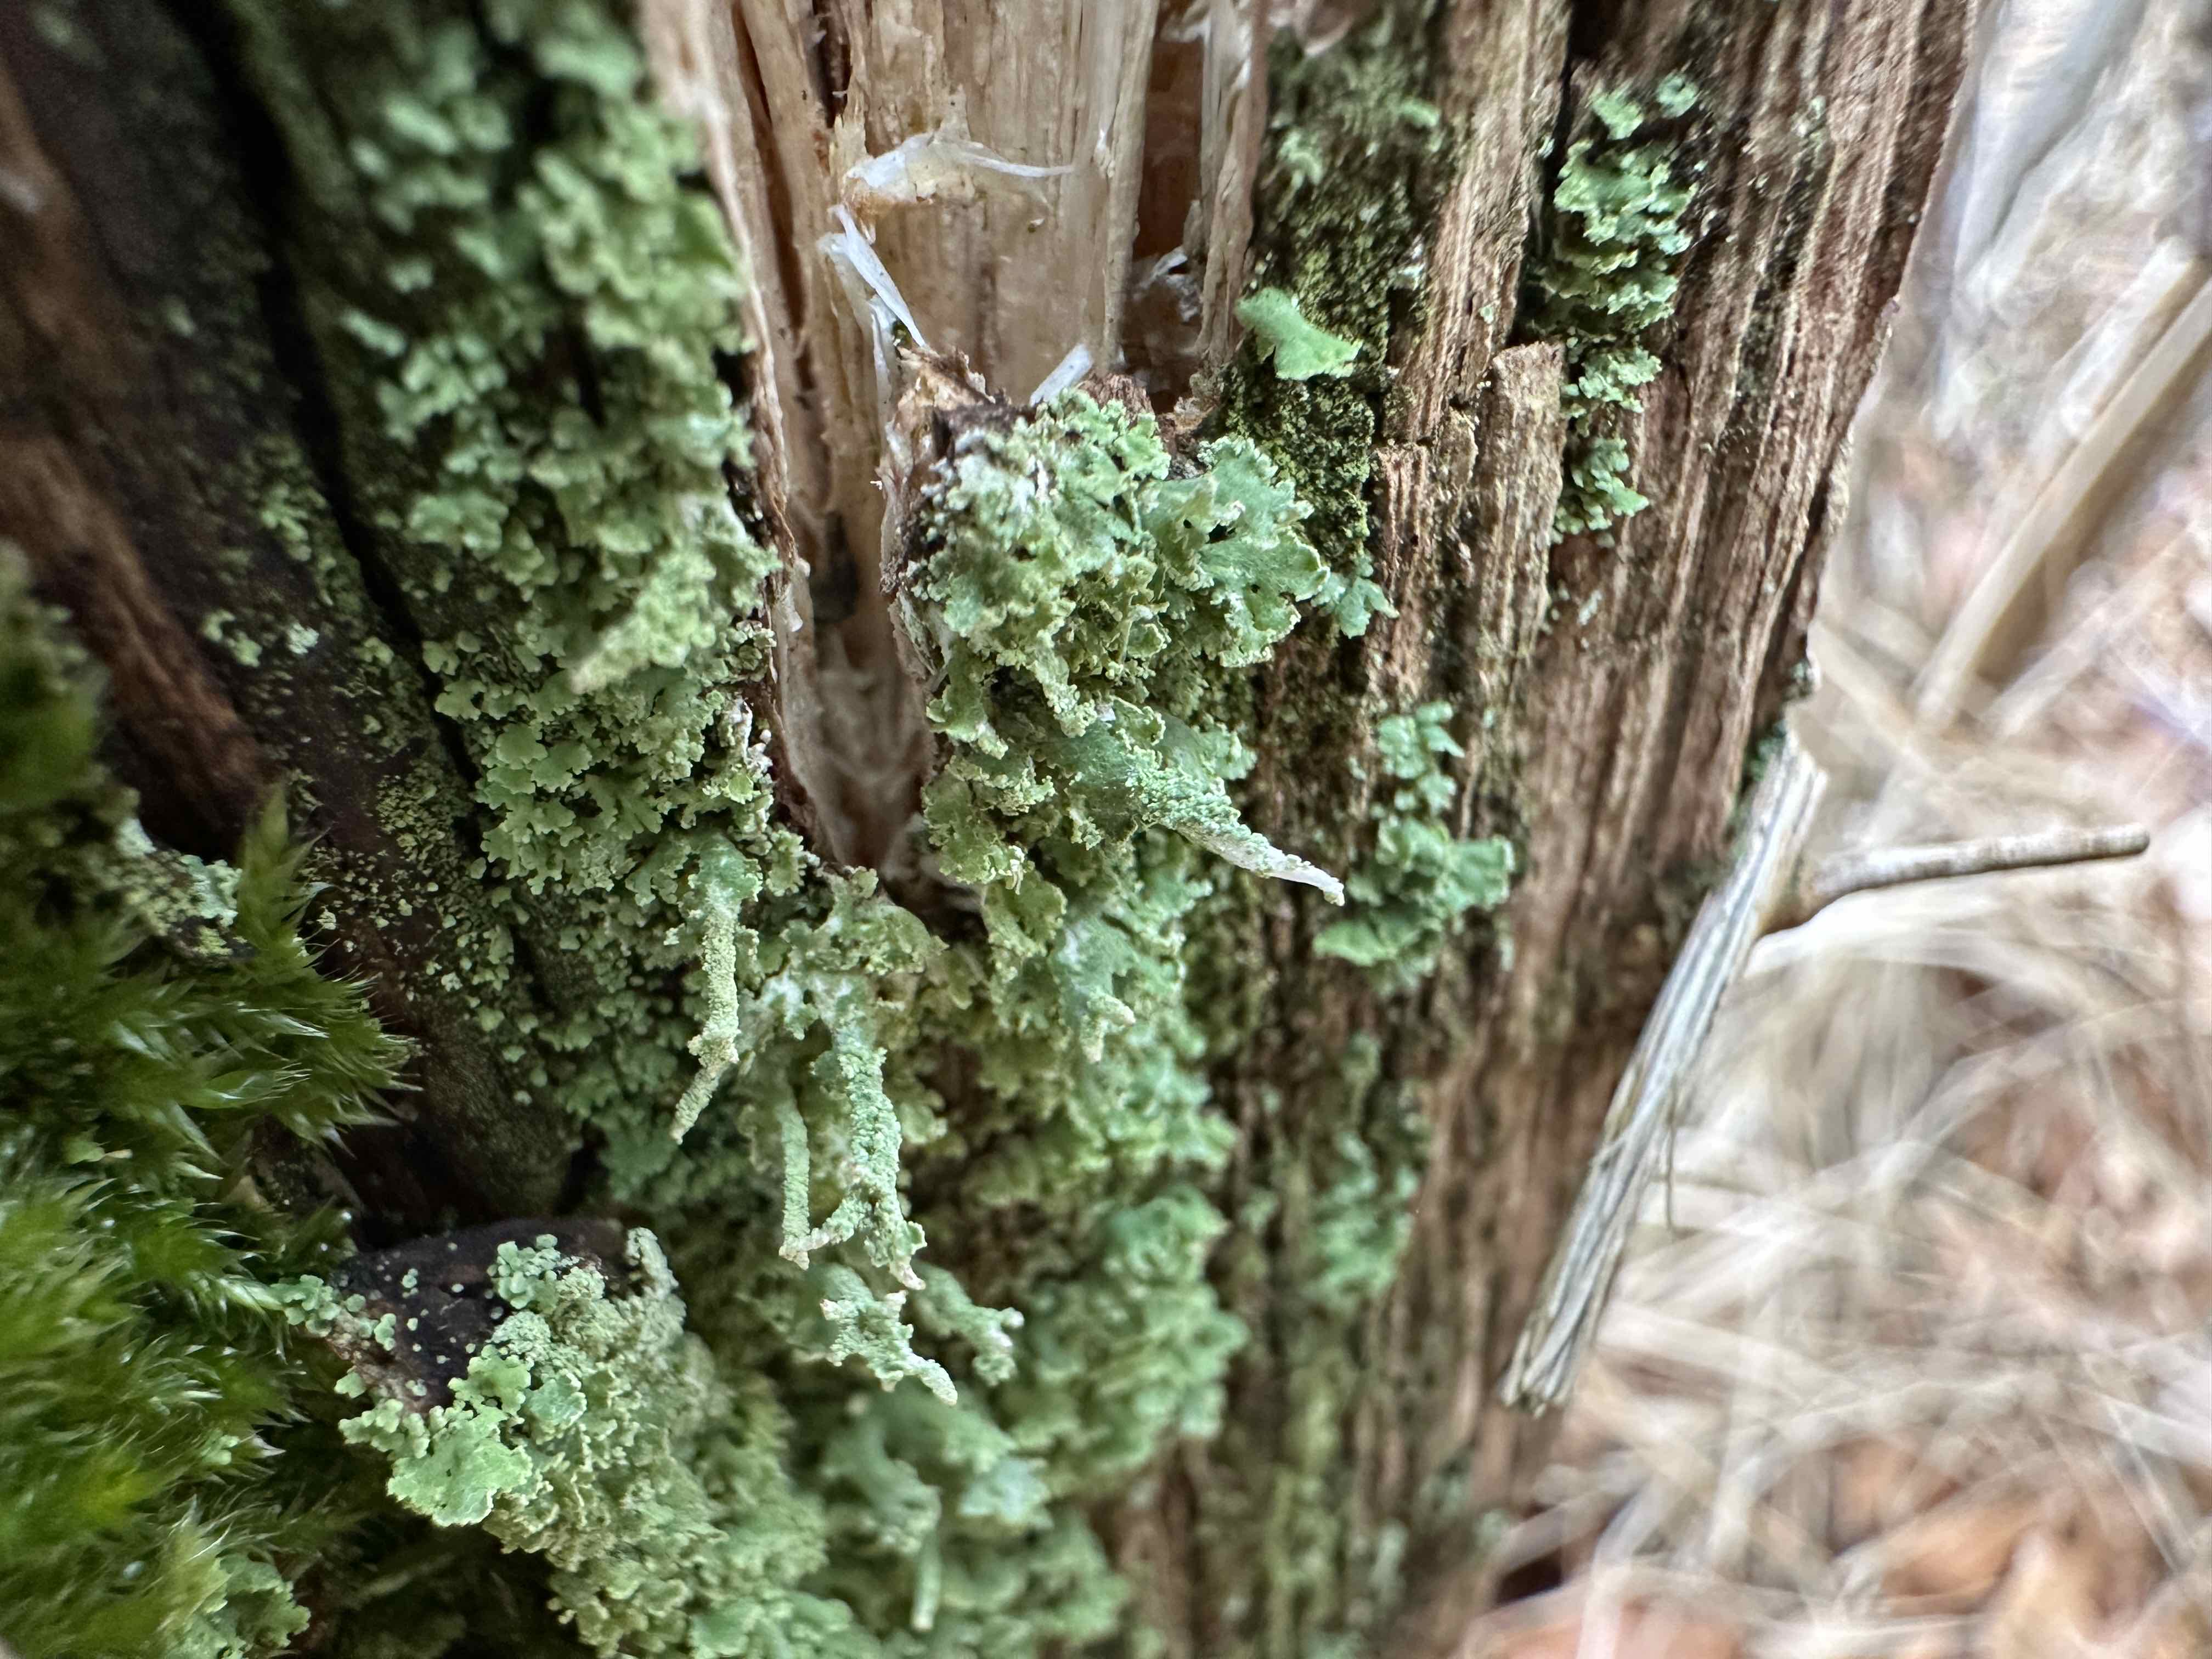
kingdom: Fungi
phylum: Ascomycota
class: Lecanoromycetes
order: Lecanorales
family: Cladoniaceae
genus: Cladonia
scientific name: Cladonia
